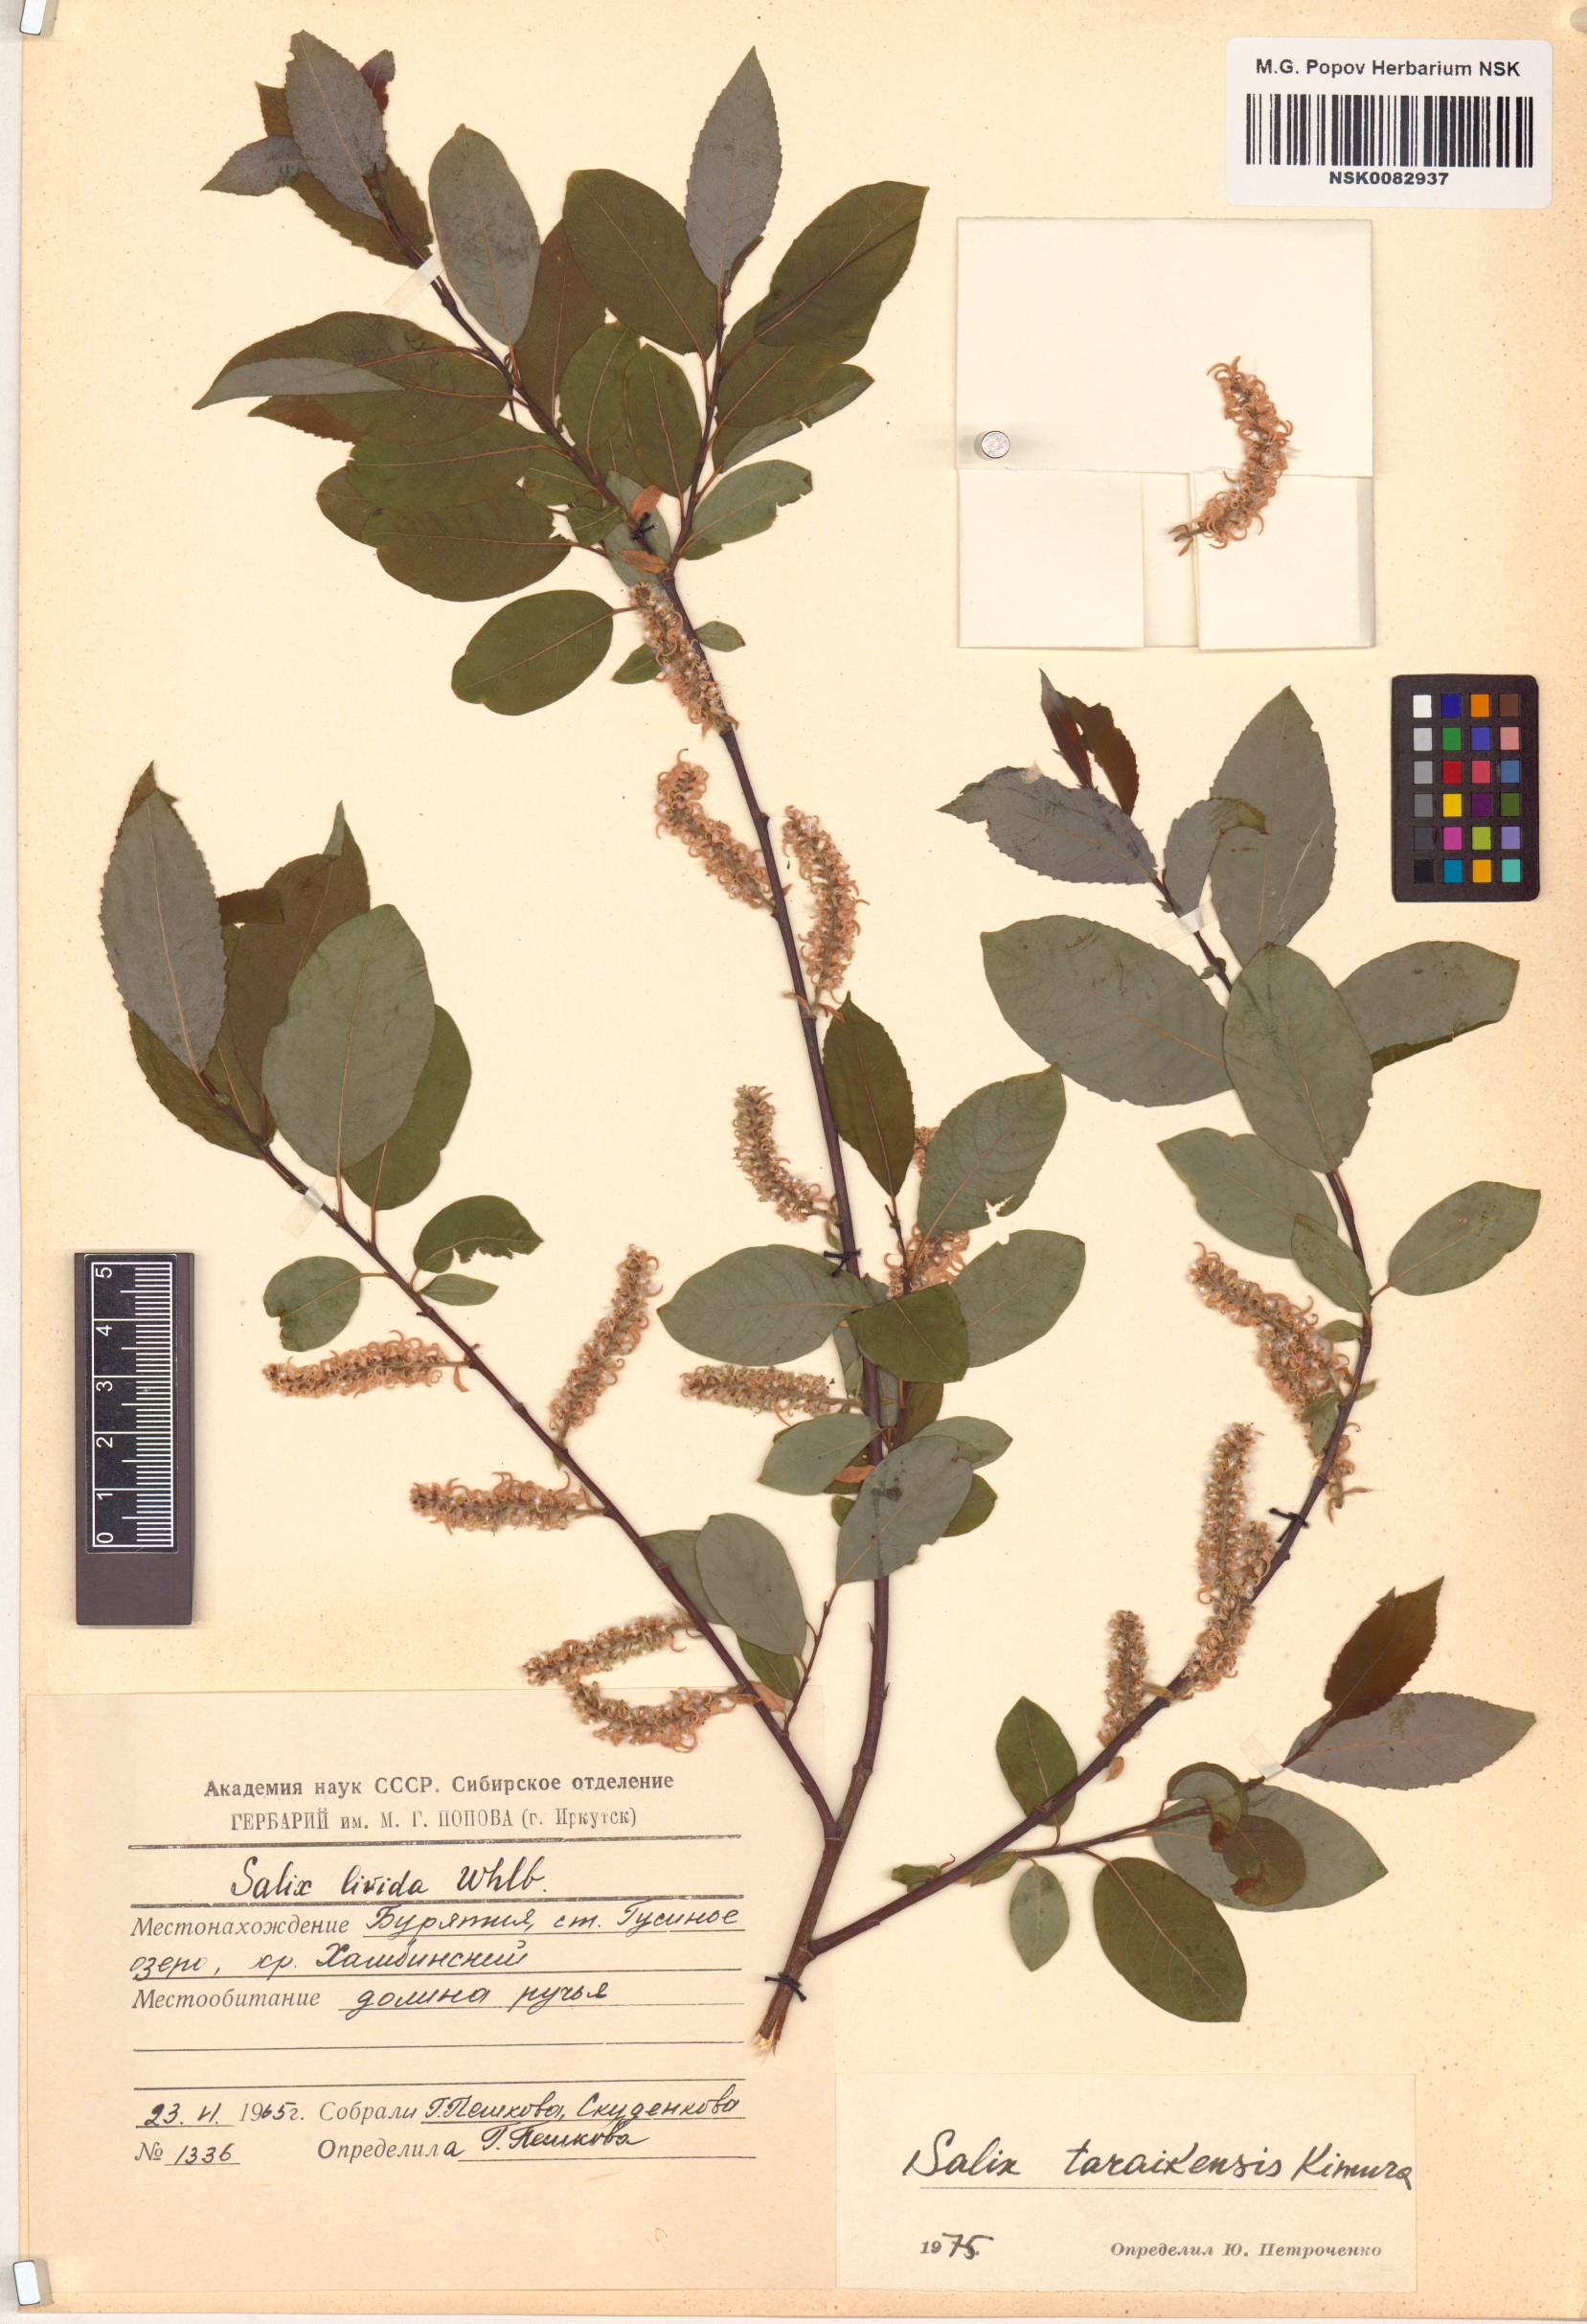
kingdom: Plantae
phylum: Tracheophyta
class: Magnoliopsida
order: Malpighiales
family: Salicaceae
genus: Salix
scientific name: Salix taraikensis
